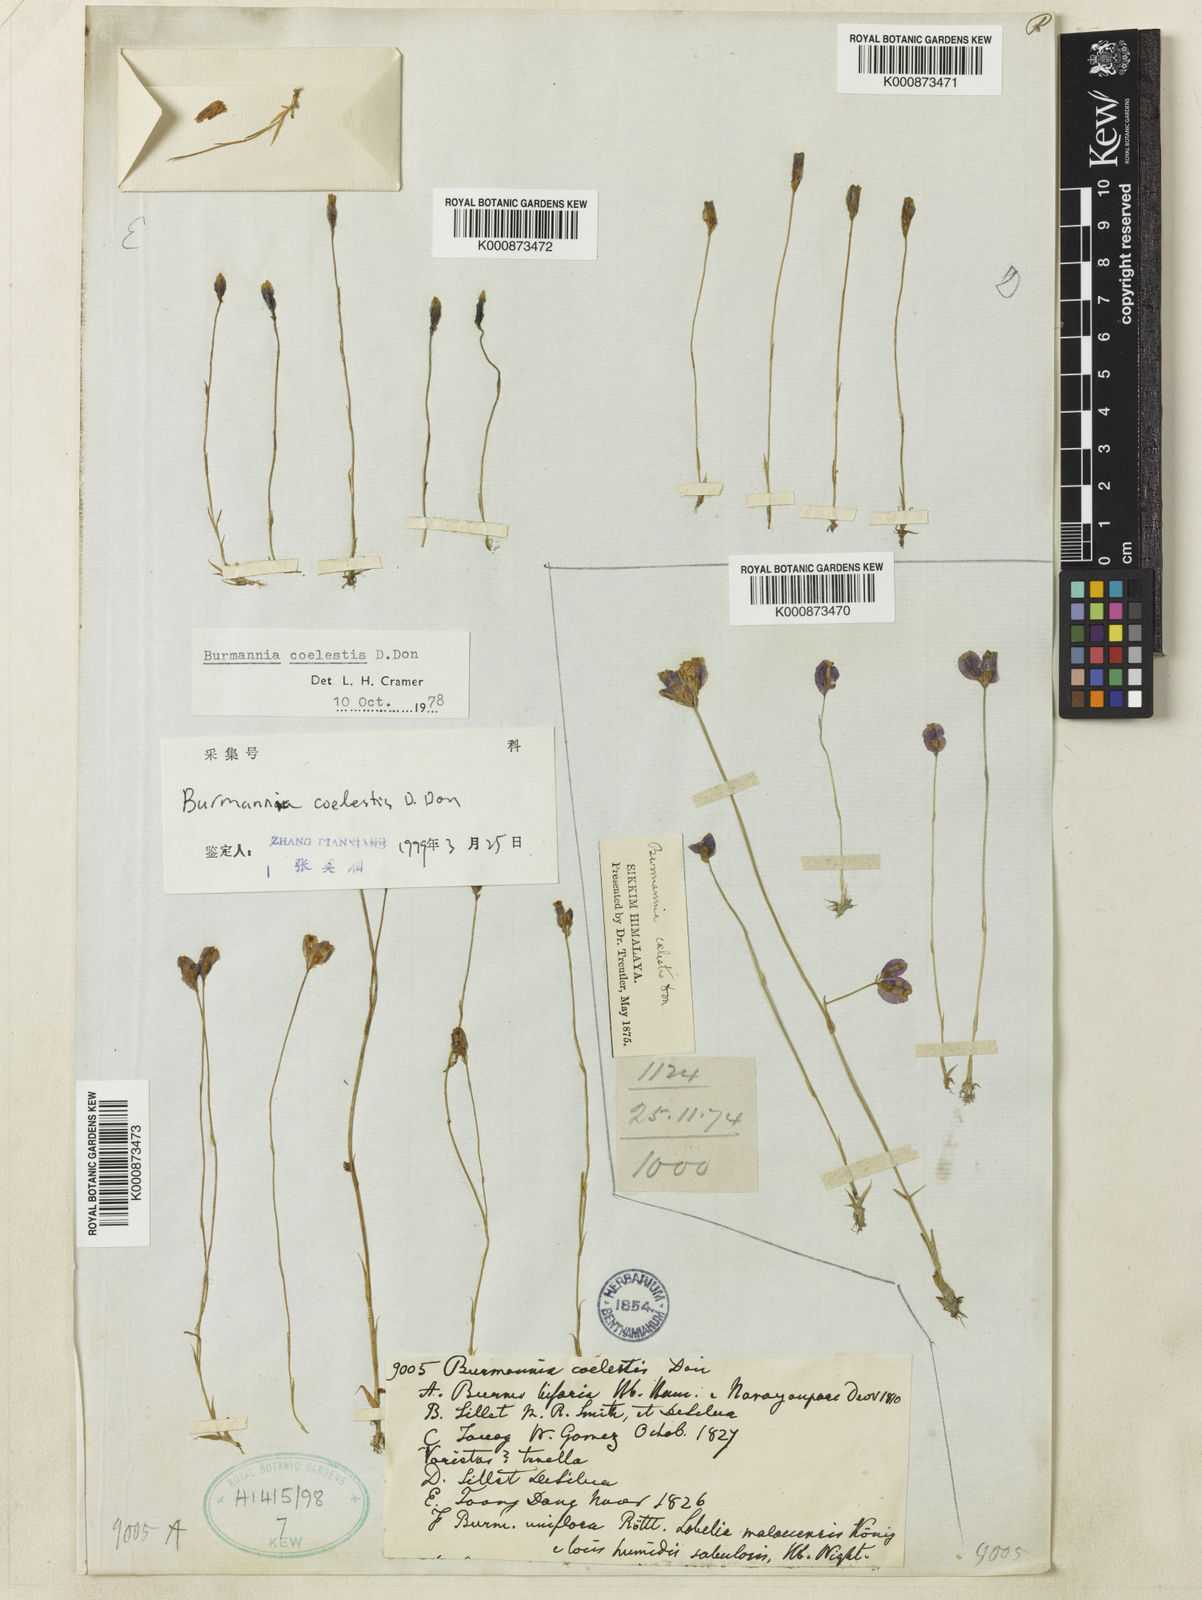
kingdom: Plantae
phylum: Tracheophyta
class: Liliopsida
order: Dioscoreales
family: Burmanniaceae
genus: Burmannia
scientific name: Burmannia coelestis
